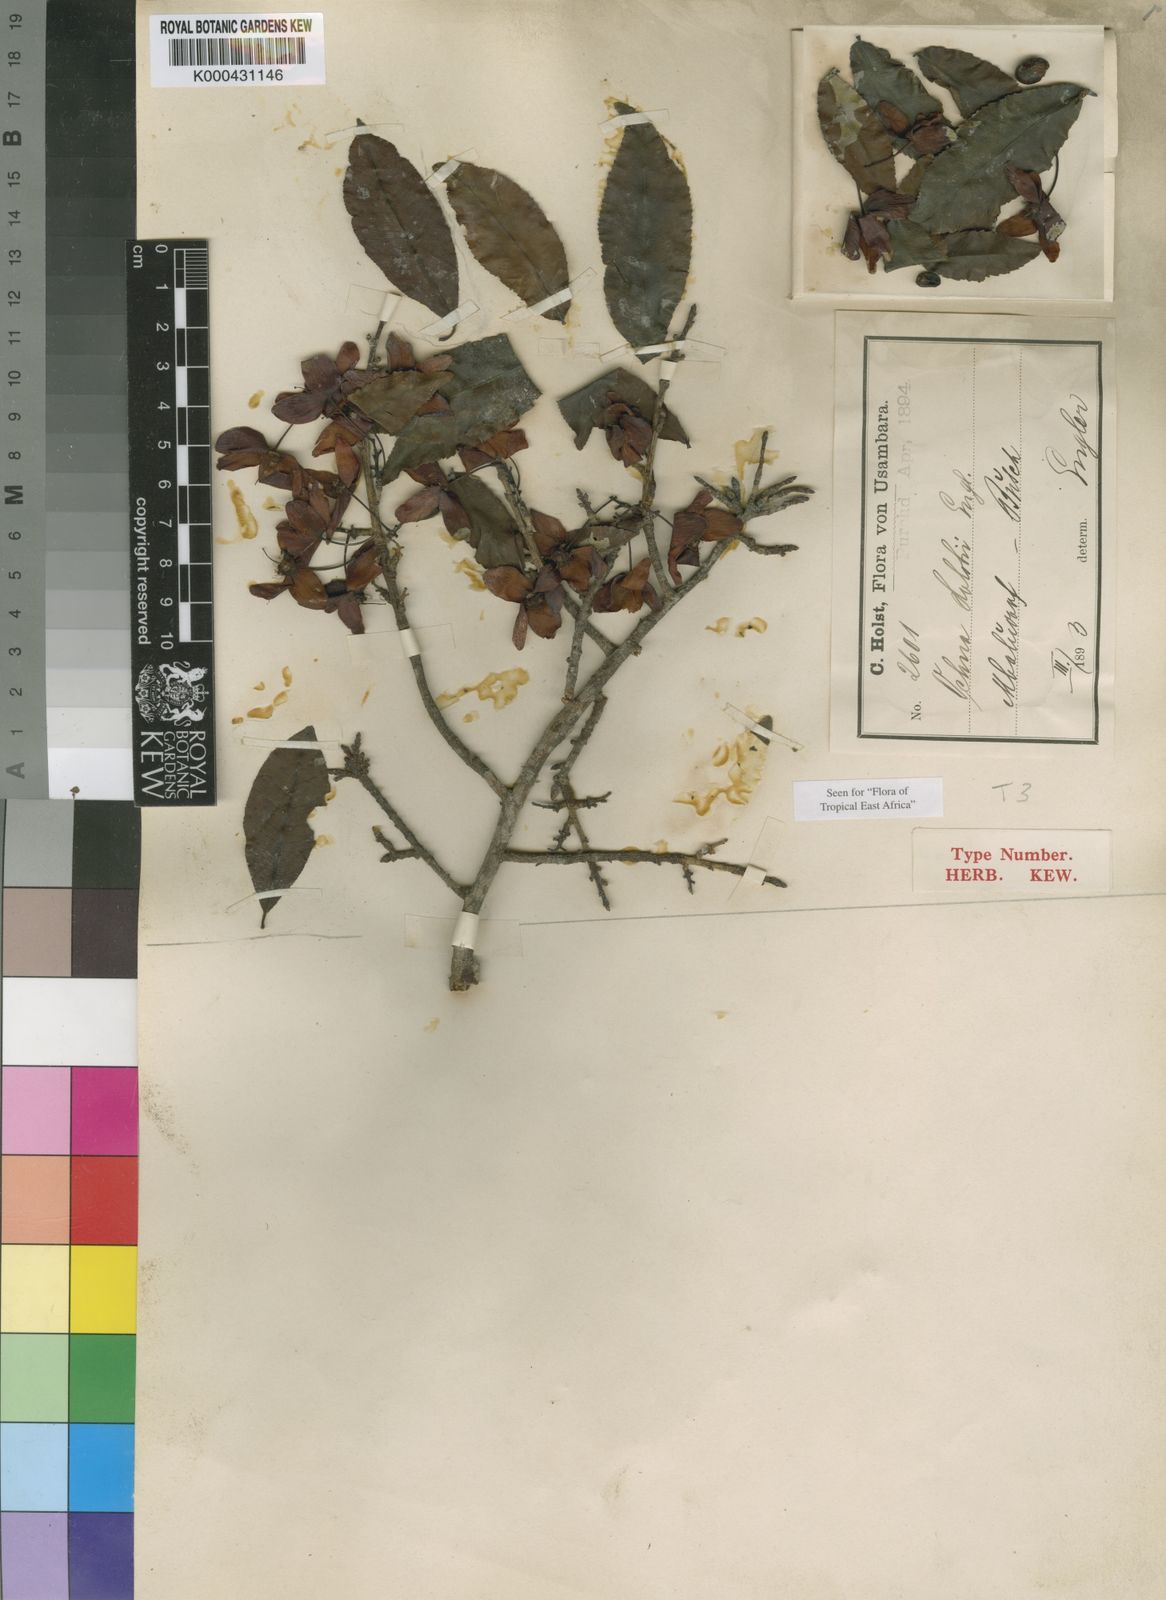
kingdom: Plantae
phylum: Tracheophyta
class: Magnoliopsida
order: Malpighiales
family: Ochnaceae
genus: Ochna
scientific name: Ochna holstii
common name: Red ironwood
